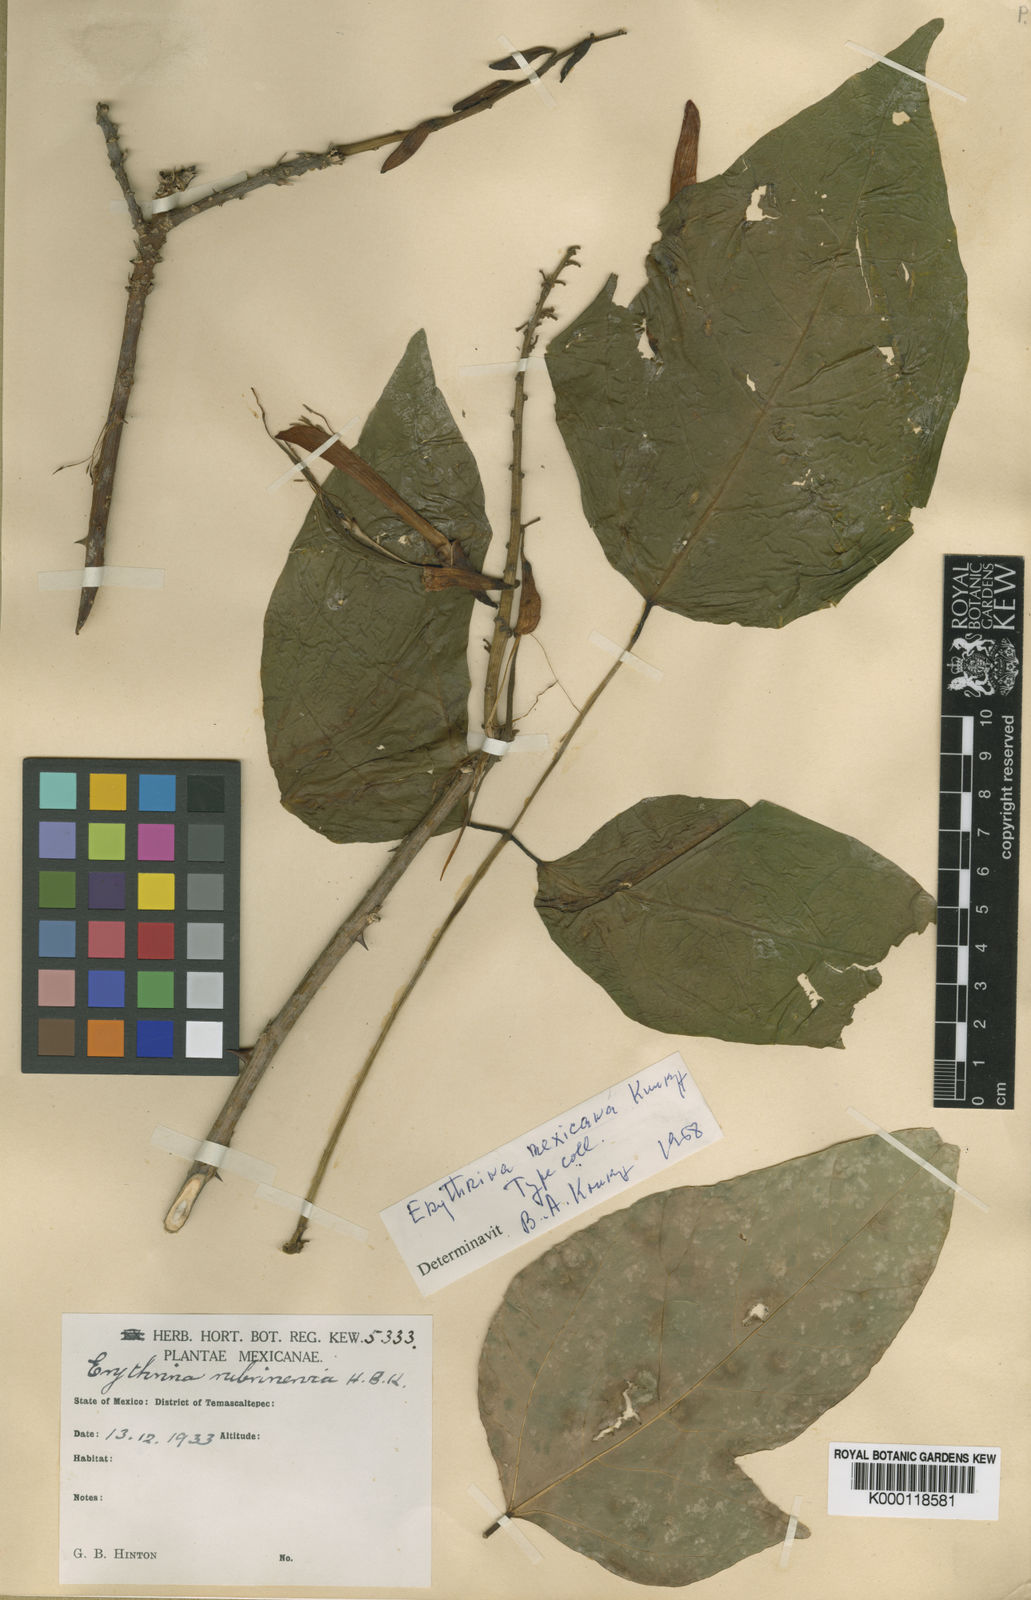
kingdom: Plantae
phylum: Tracheophyta
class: Magnoliopsida
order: Fabales
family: Fabaceae
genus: Erythrina
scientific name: Erythrina mexicana
